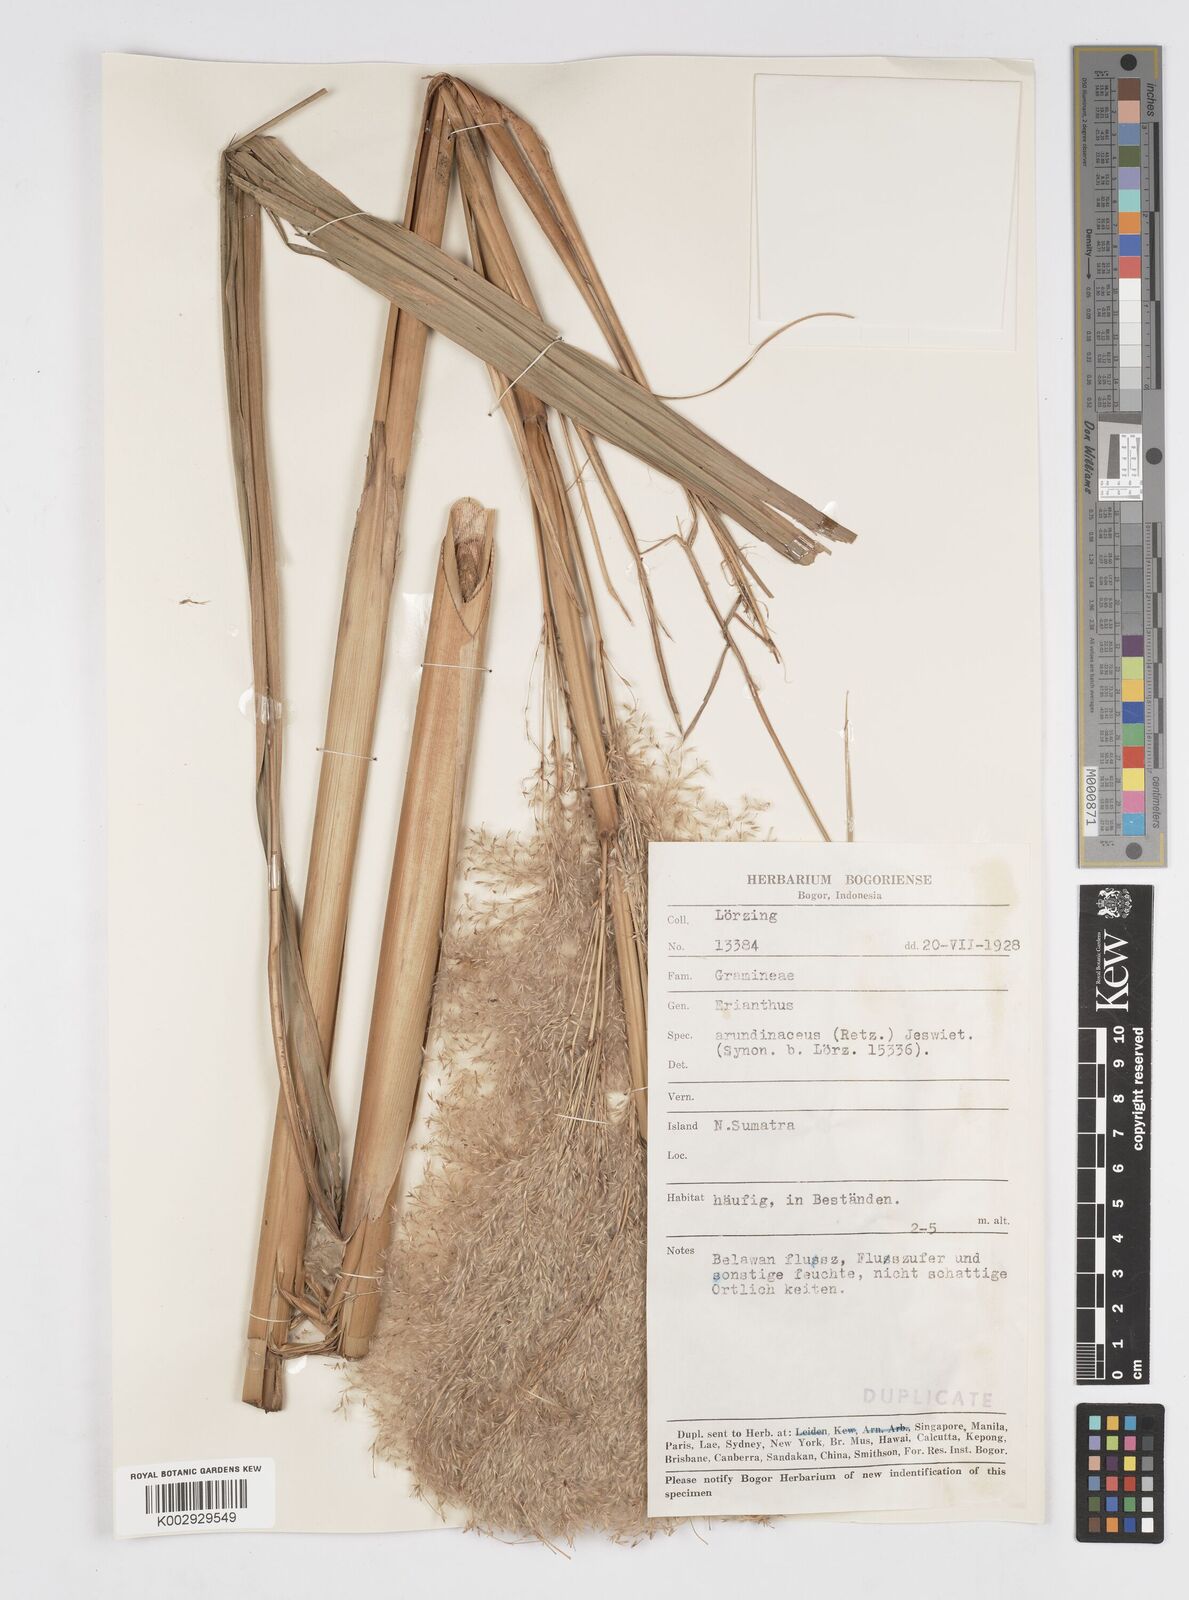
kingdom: Plantae
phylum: Tracheophyta
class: Liliopsida
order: Poales
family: Poaceae
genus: Tripidium
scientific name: Tripidium arundinaceum
